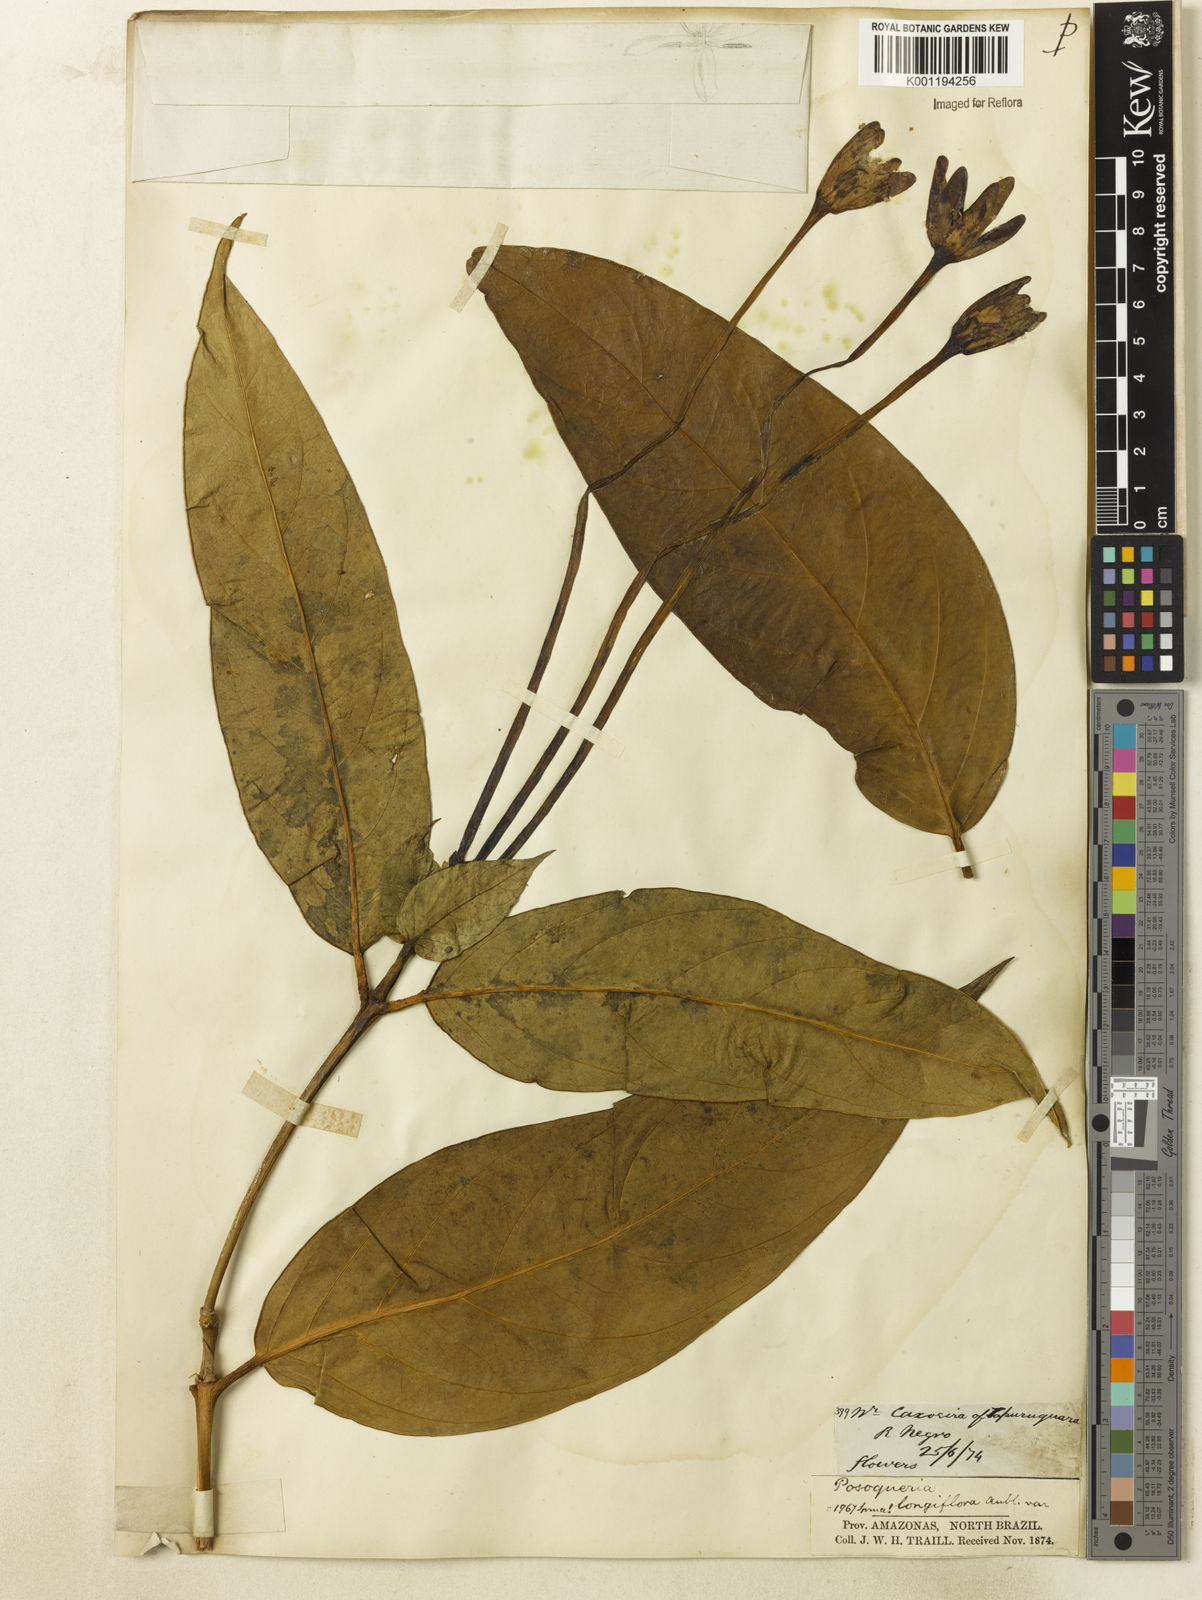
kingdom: Plantae
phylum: Tracheophyta
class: Magnoliopsida
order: Gentianales
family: Rubiaceae
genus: Posoqueria
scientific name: Posoqueria longiflora
